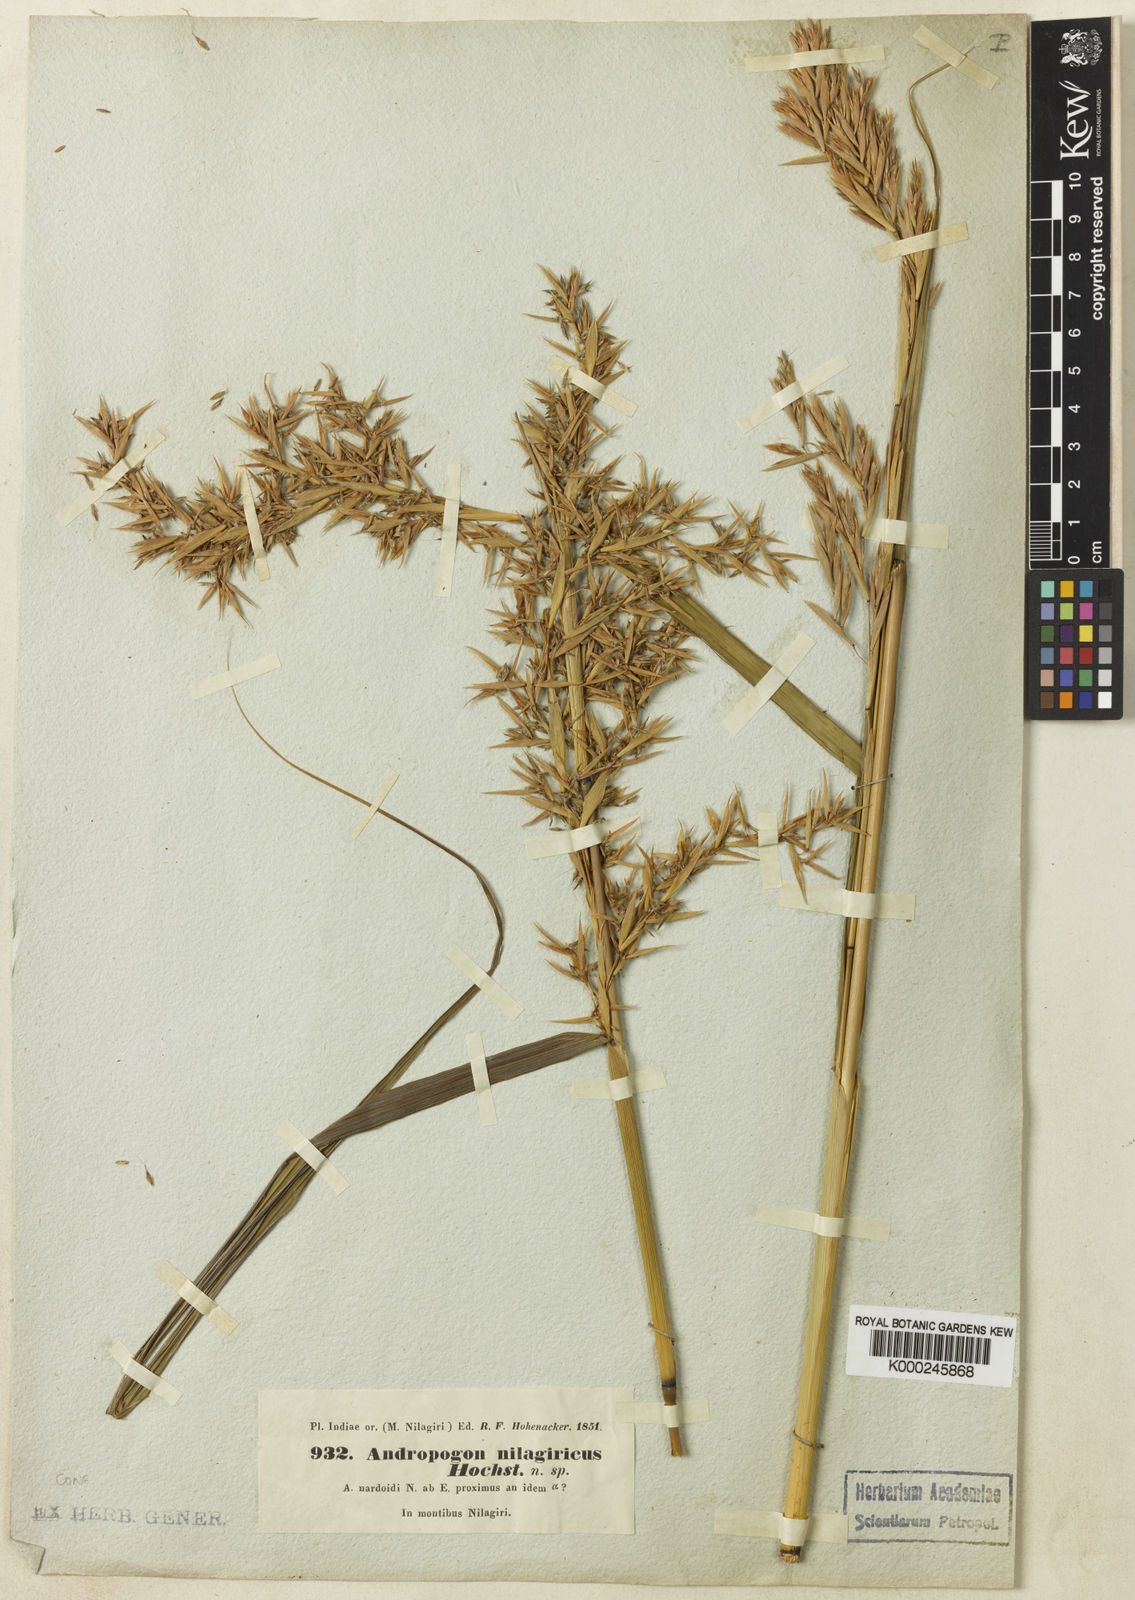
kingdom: Plantae
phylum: Tracheophyta
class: Liliopsida
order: Poales
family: Poaceae
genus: Cymbopogon
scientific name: Cymbopogon nardus
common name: Giant turpentine grass
